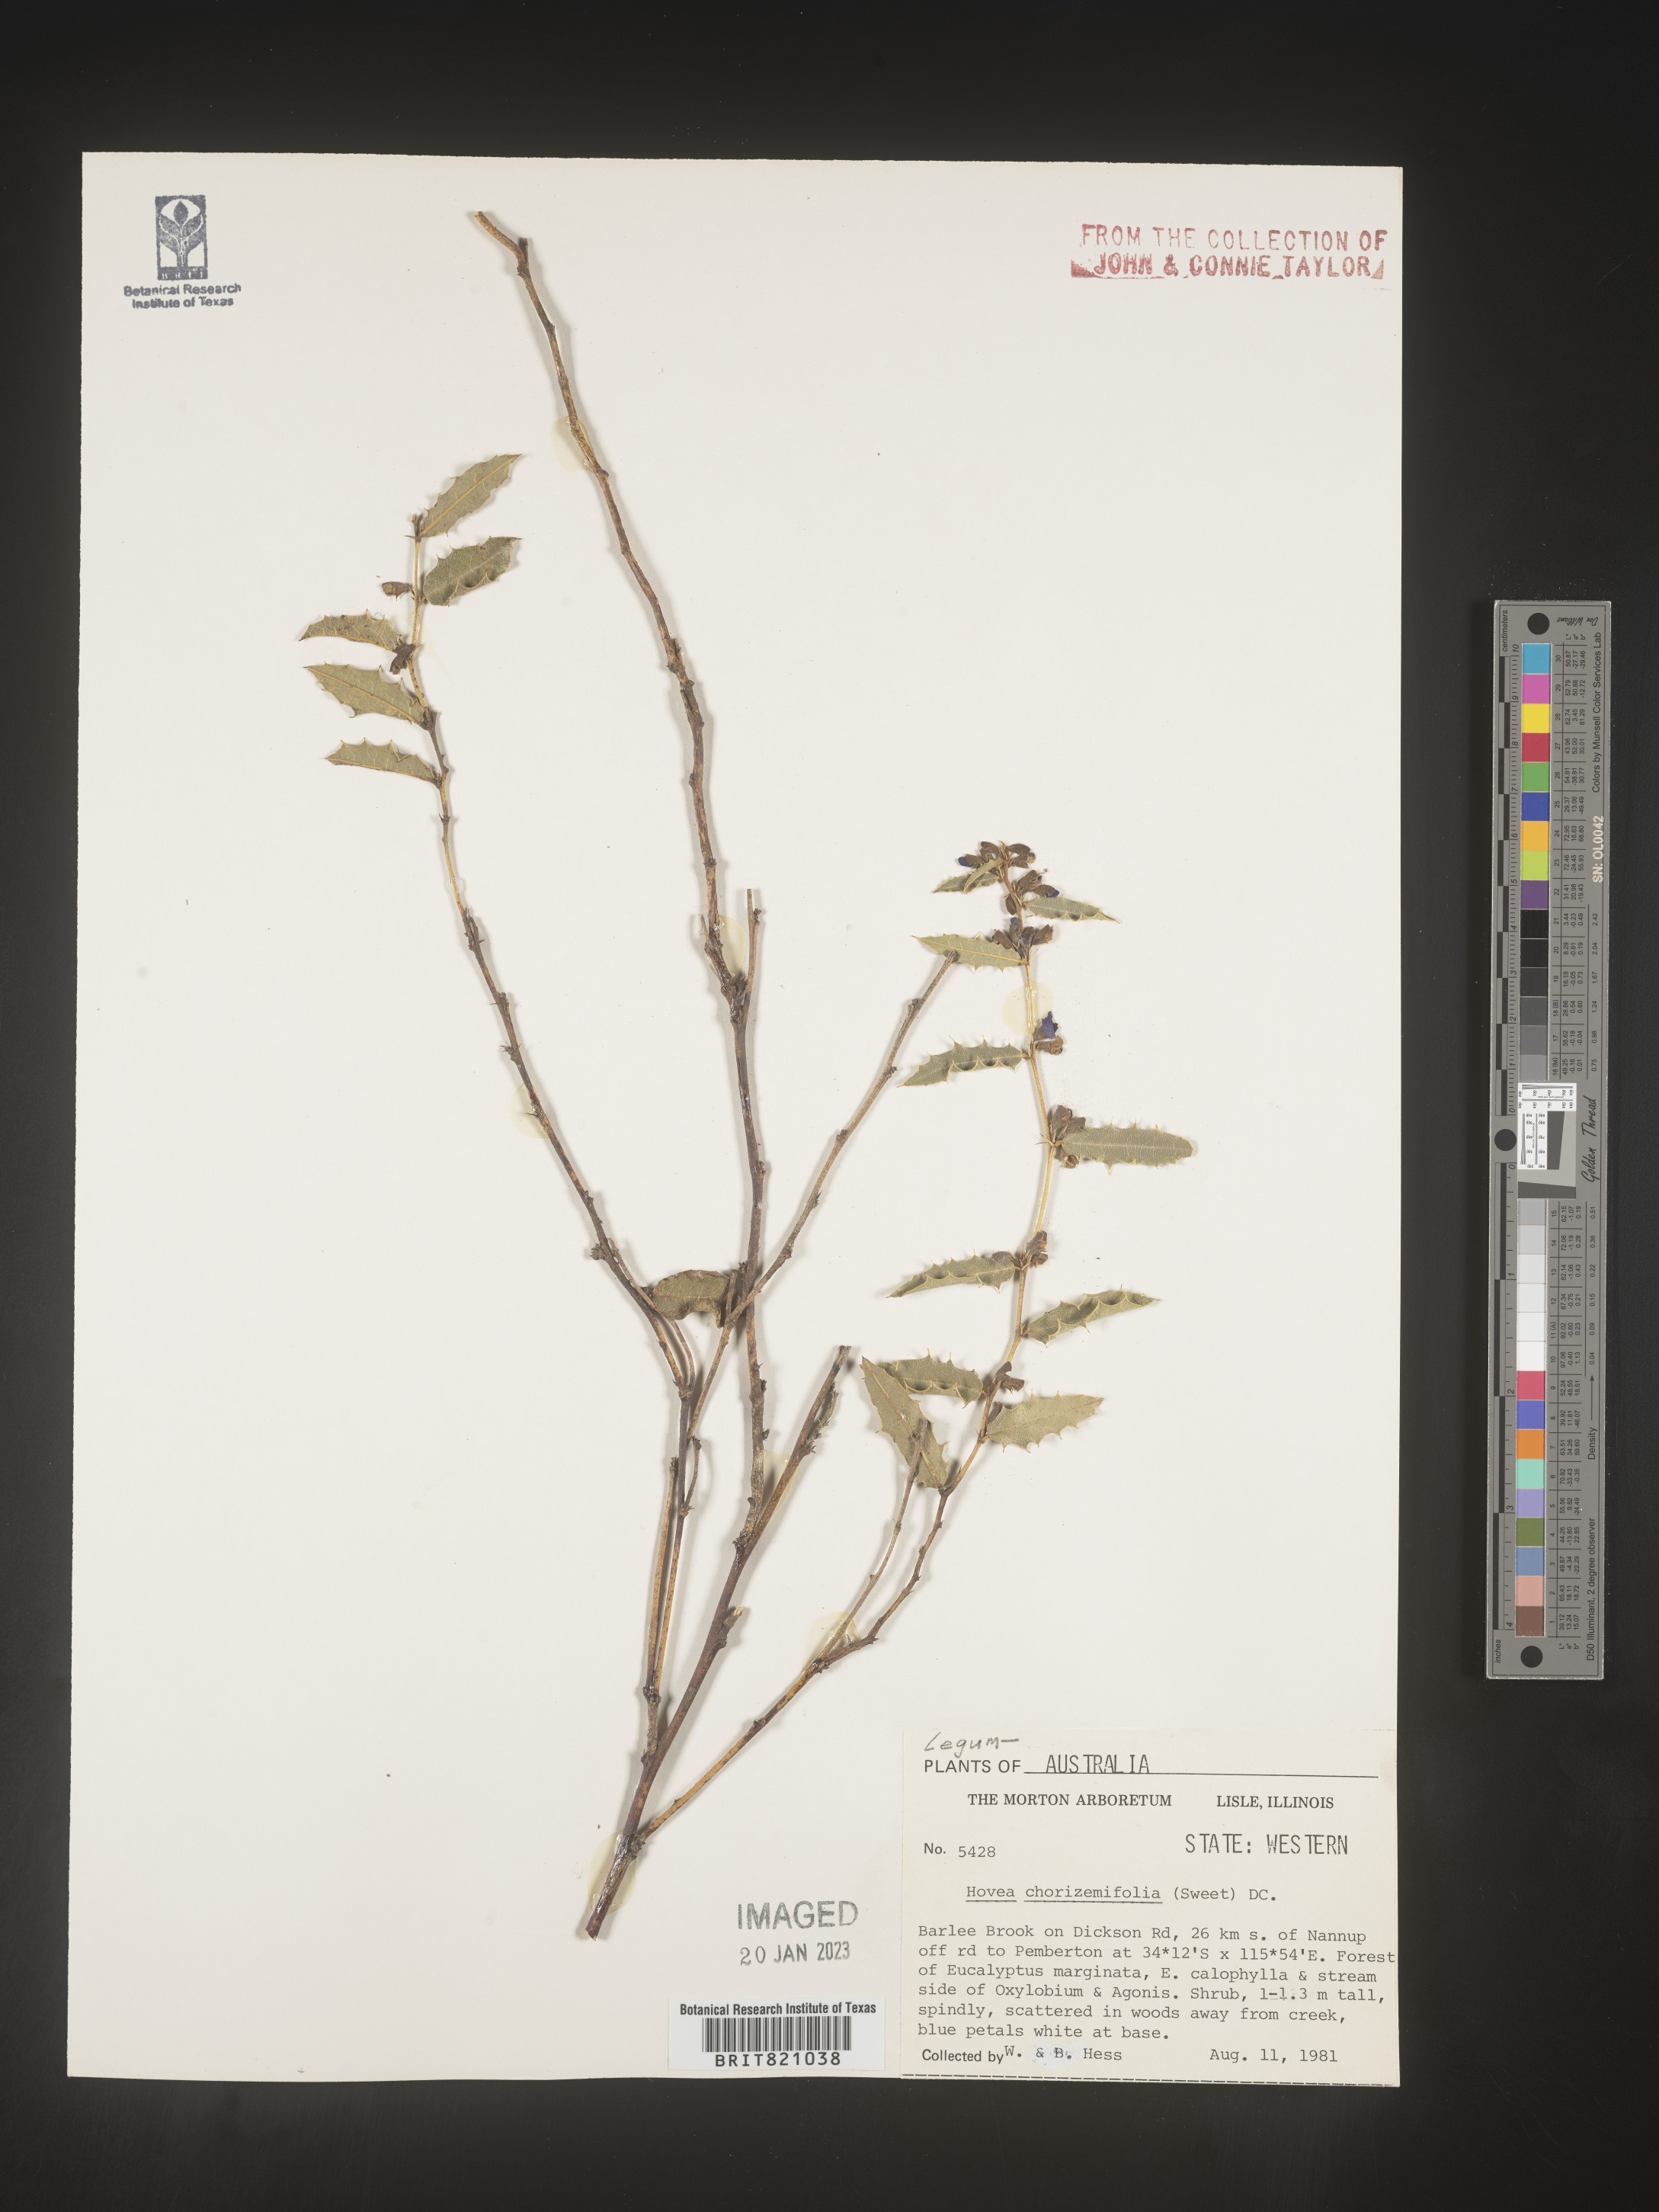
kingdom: Plantae
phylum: Tracheophyta
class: Magnoliopsida
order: Fabales
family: Fabaceae
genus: Hovea
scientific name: Hovea
